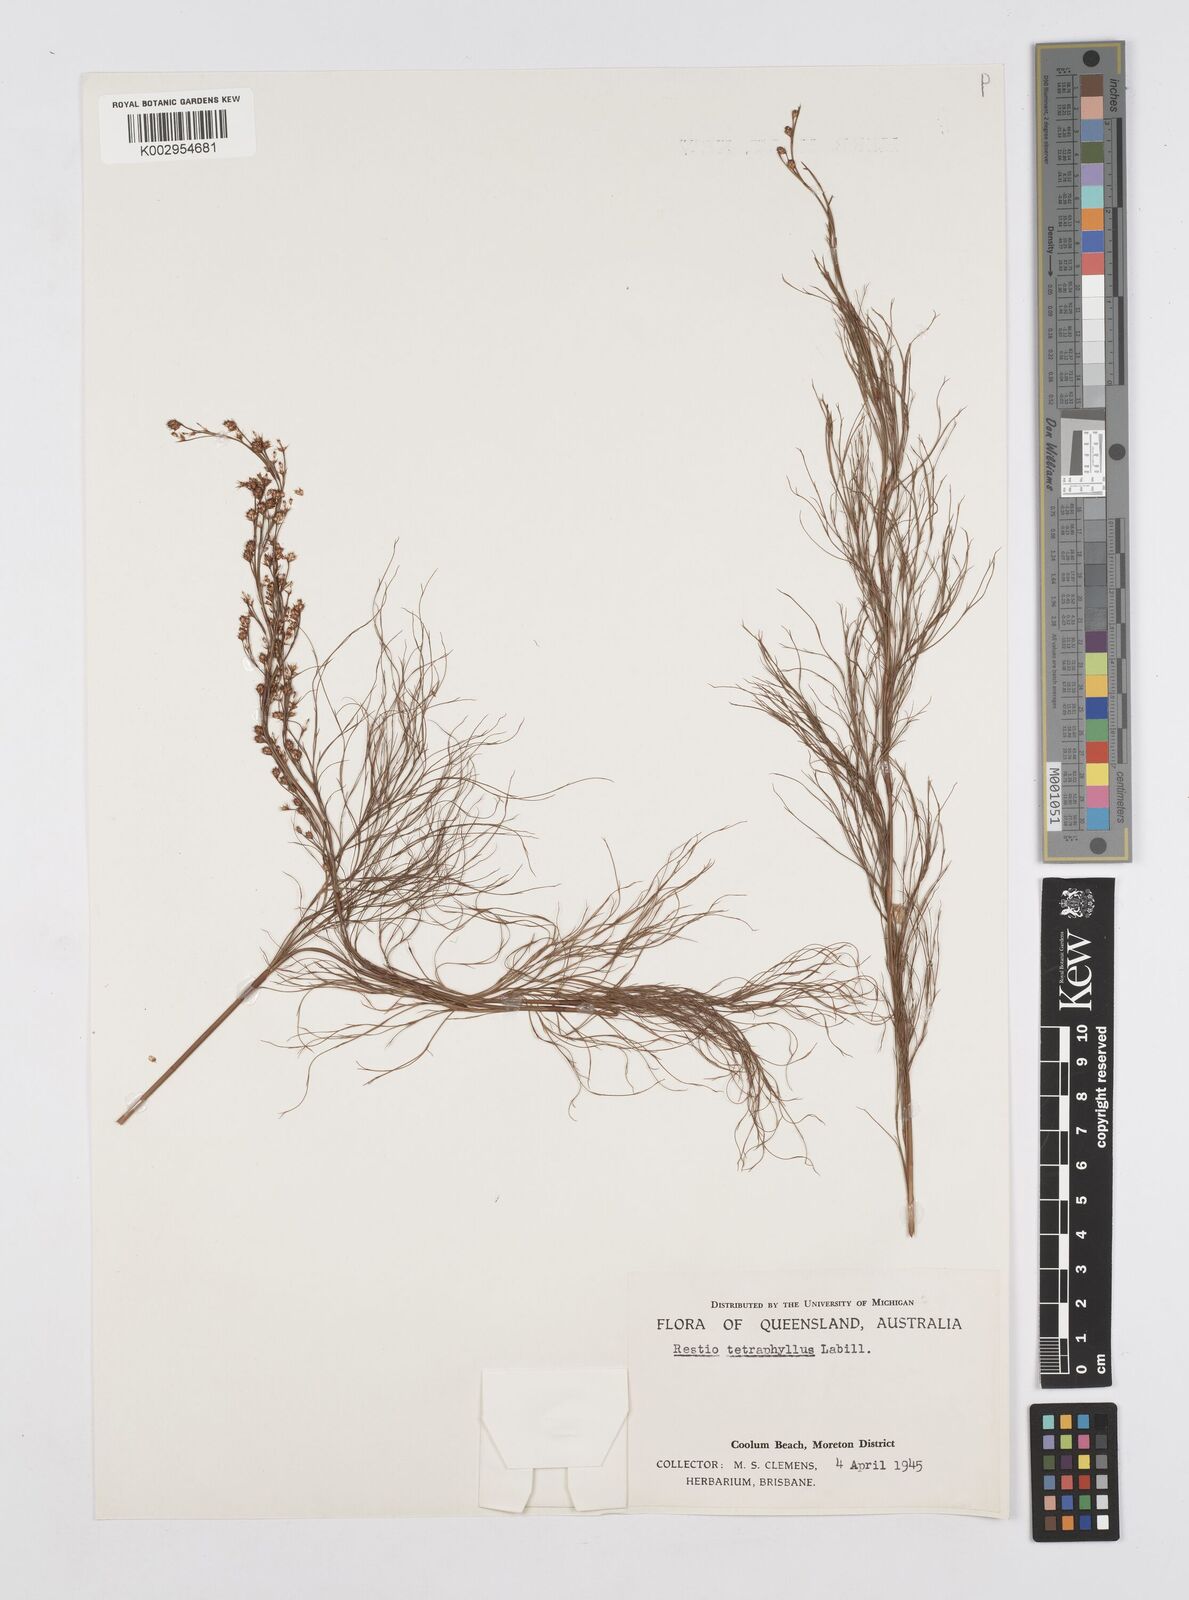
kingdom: Plantae
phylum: Tracheophyta
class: Liliopsida
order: Poales
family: Restionaceae
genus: Baloskion
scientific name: Baloskion tetraphyllum
